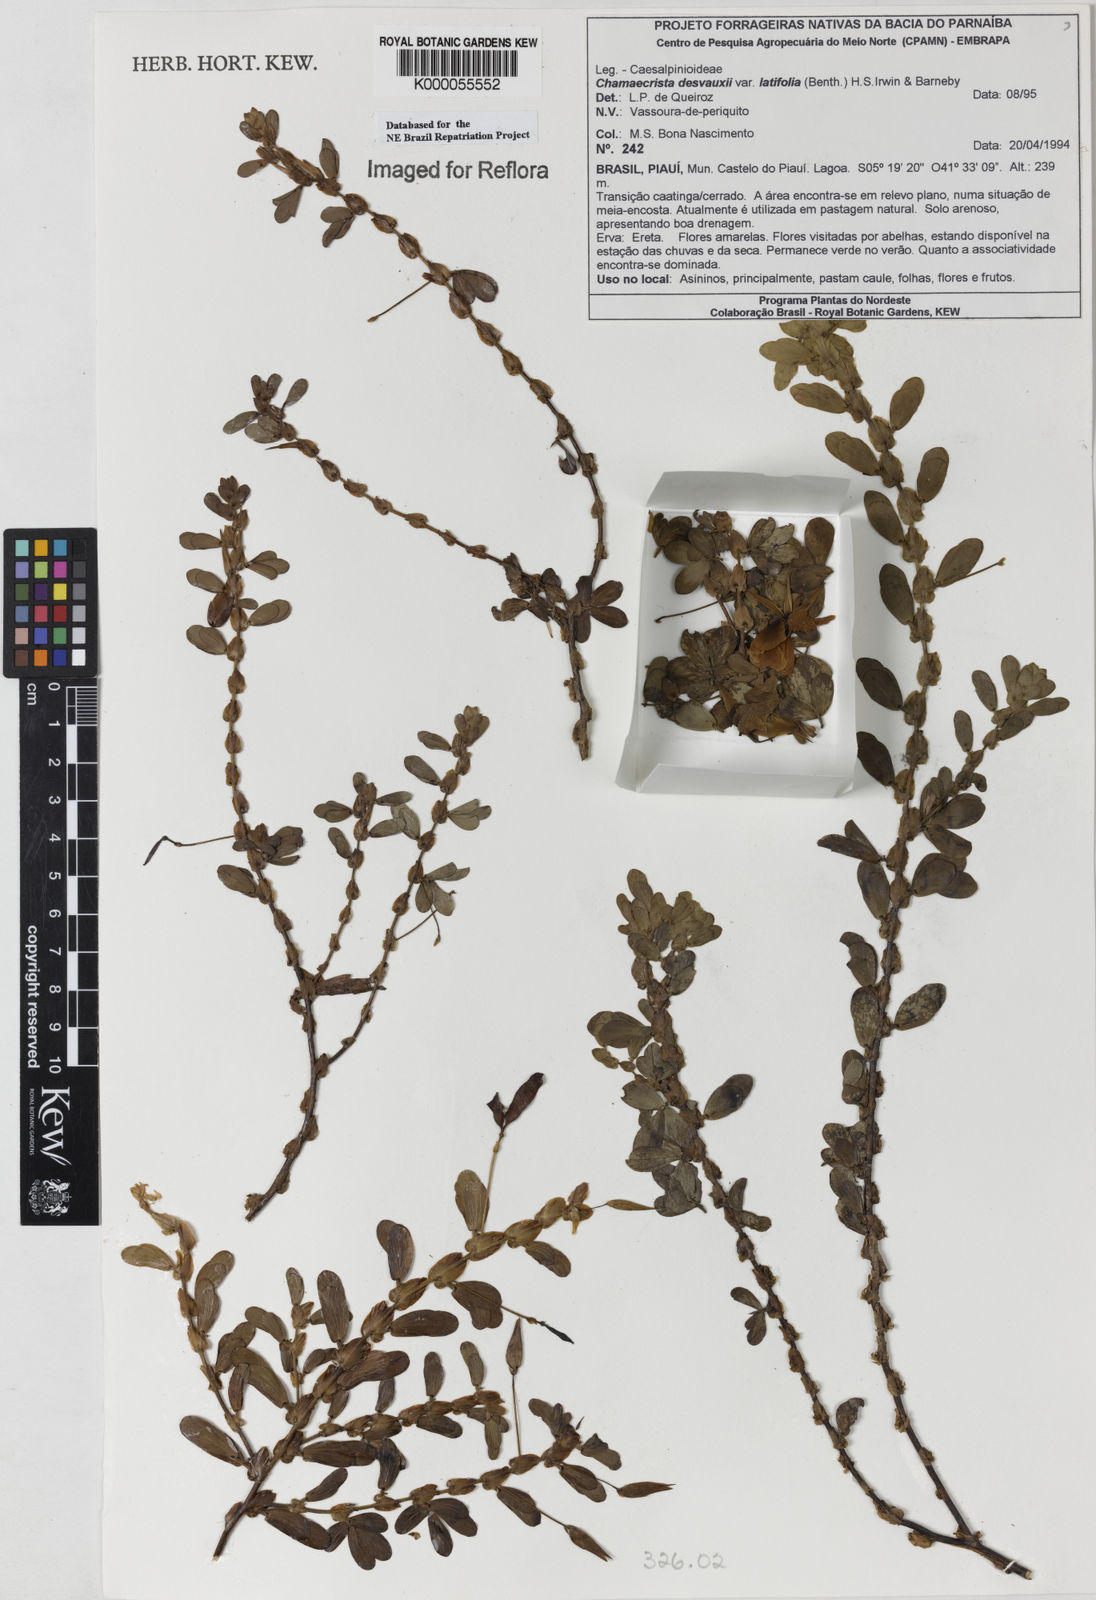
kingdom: Plantae
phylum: Tracheophyta
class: Magnoliopsida
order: Fabales
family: Fabaceae
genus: Chamaecrista
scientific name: Chamaecrista desvauxii
